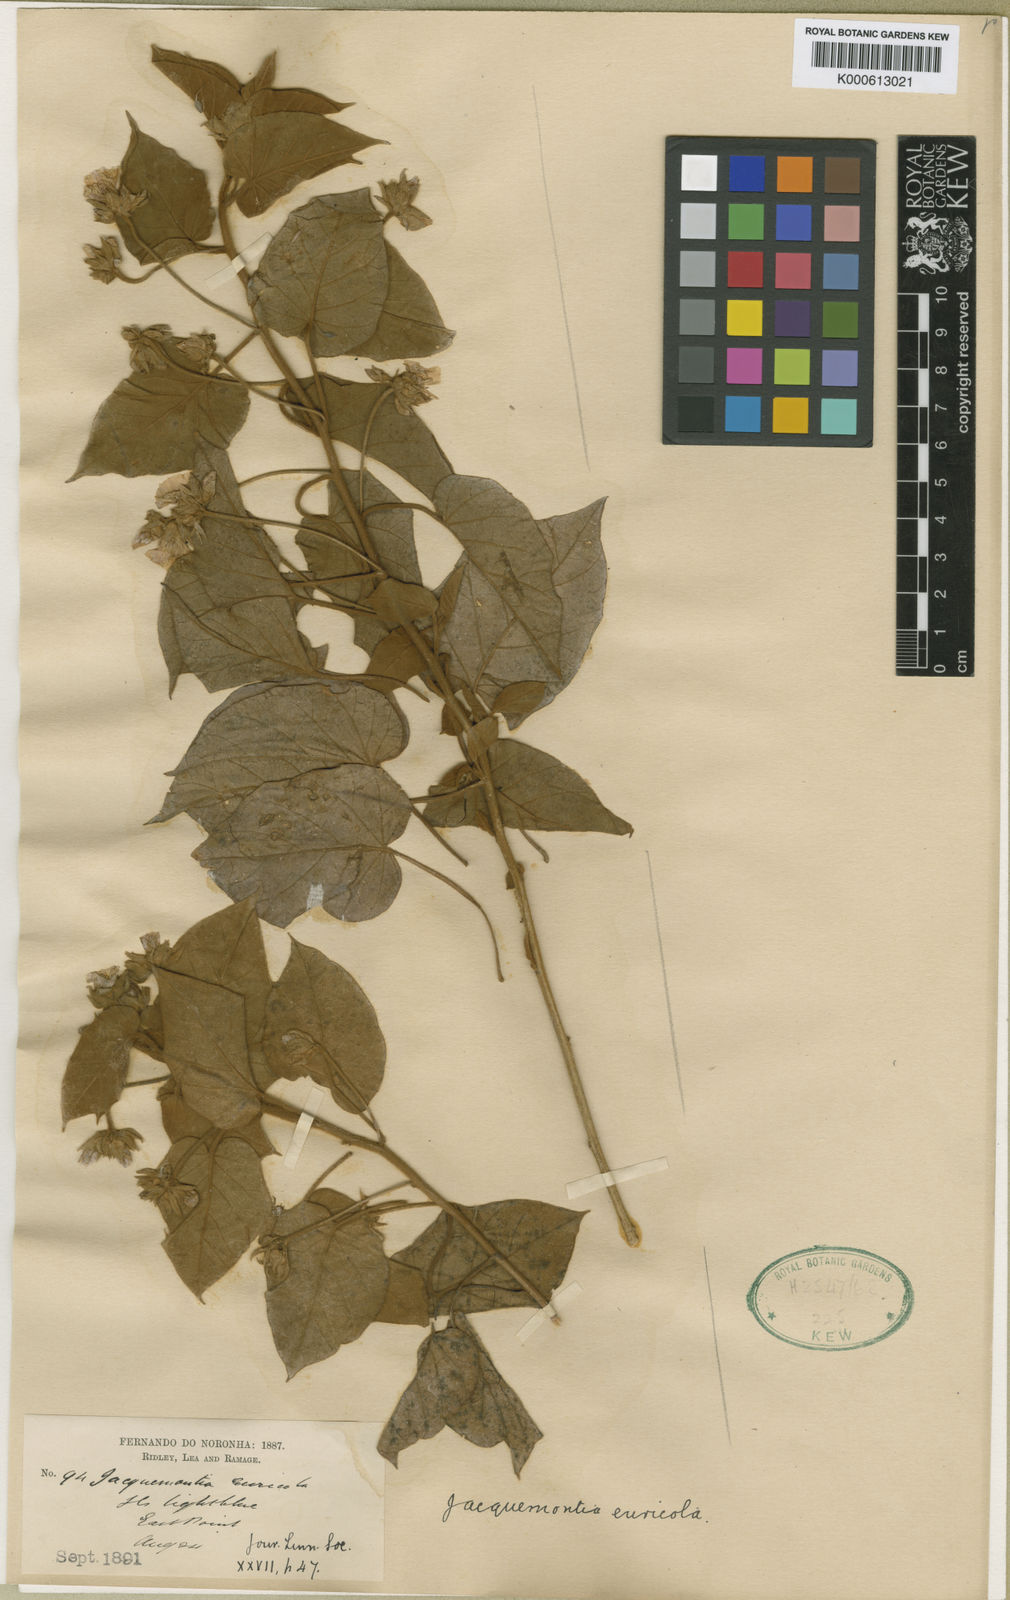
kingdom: Plantae
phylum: Tracheophyta
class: Magnoliopsida
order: Solanales
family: Convolvulaceae
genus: Jacquemontia
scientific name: Jacquemontia euricola
